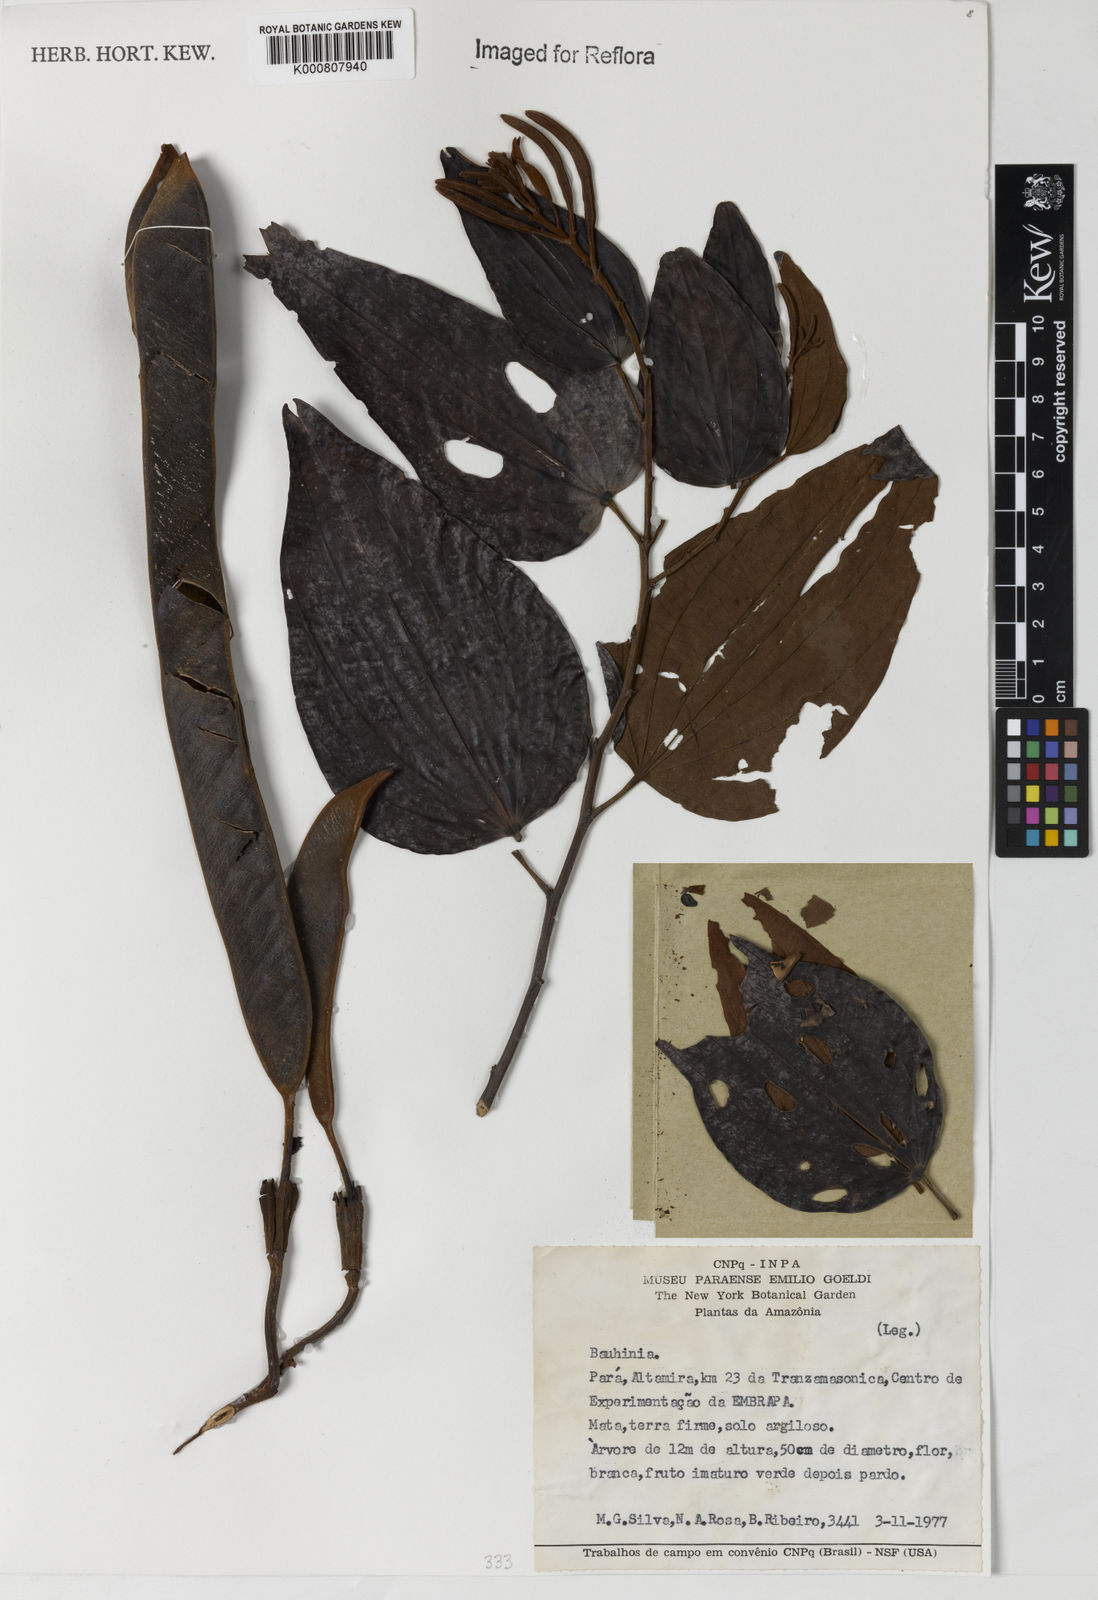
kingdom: Plantae
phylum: Tracheophyta
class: Magnoliopsida
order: Fabales
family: Fabaceae
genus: Bauhinia
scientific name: Bauhinia
